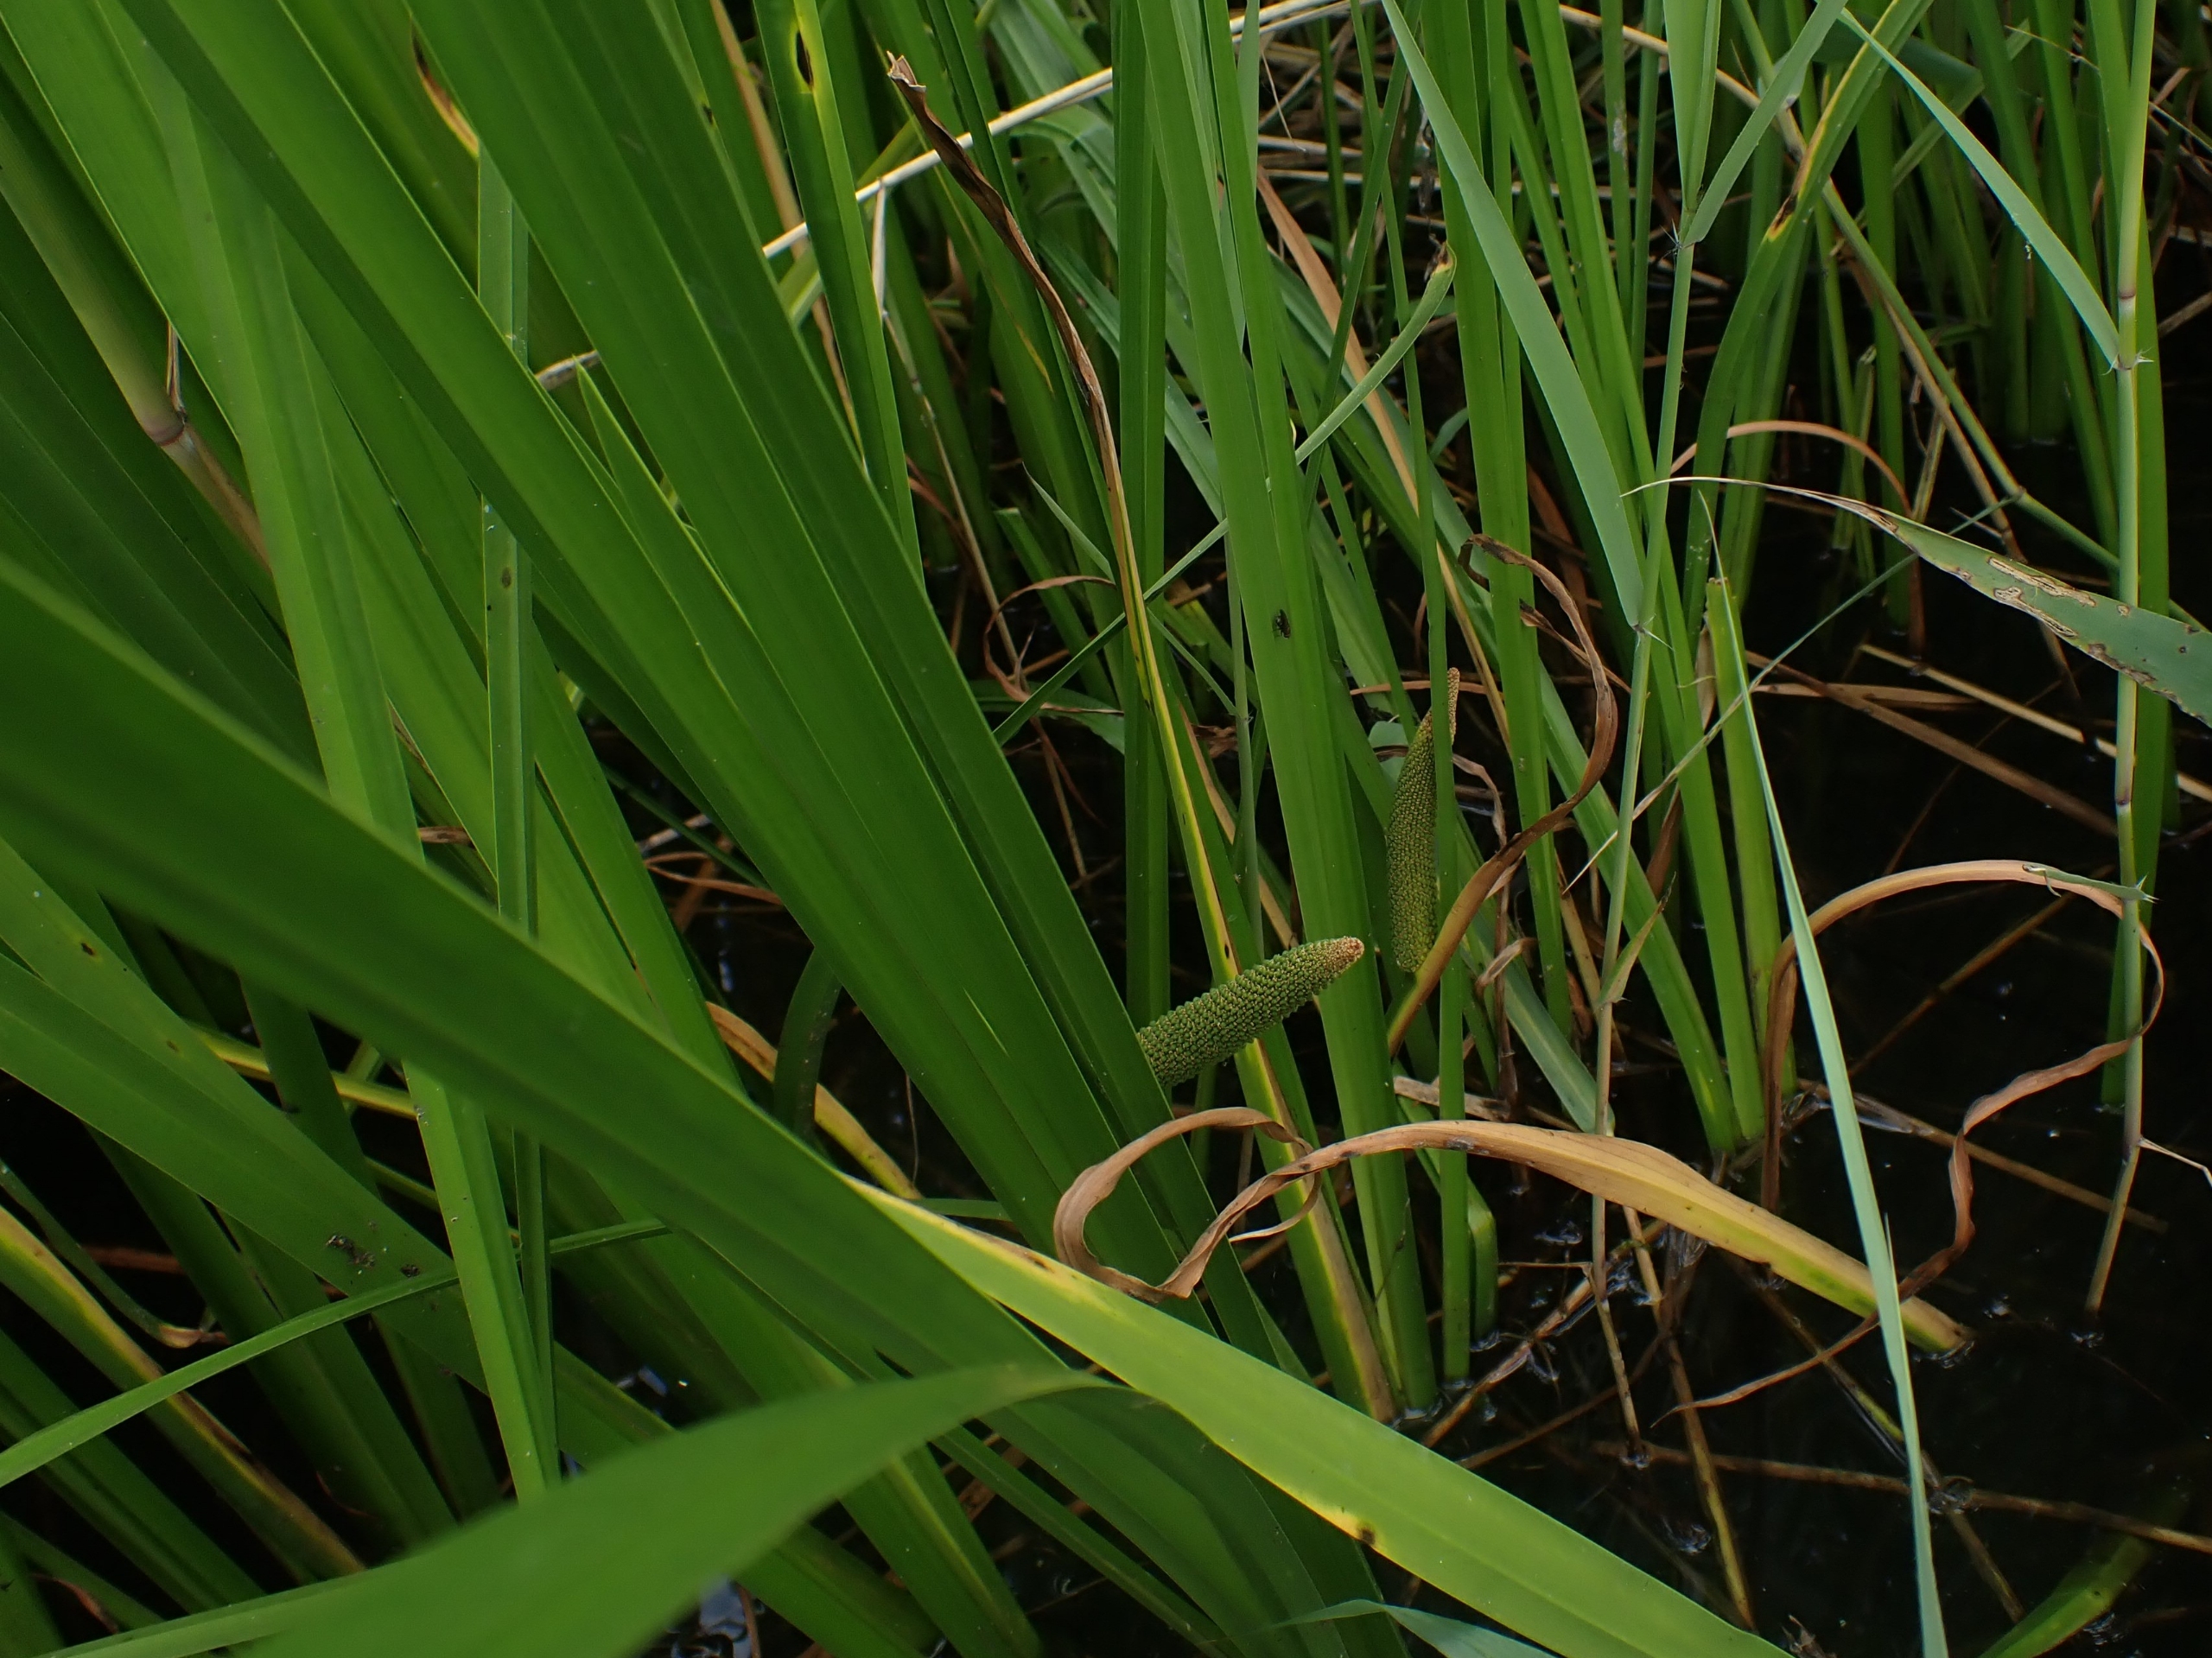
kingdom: Plantae
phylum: Tracheophyta
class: Liliopsida
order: Acorales
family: Acoraceae
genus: Acorus
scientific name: Acorus calamus
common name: Kalmus
